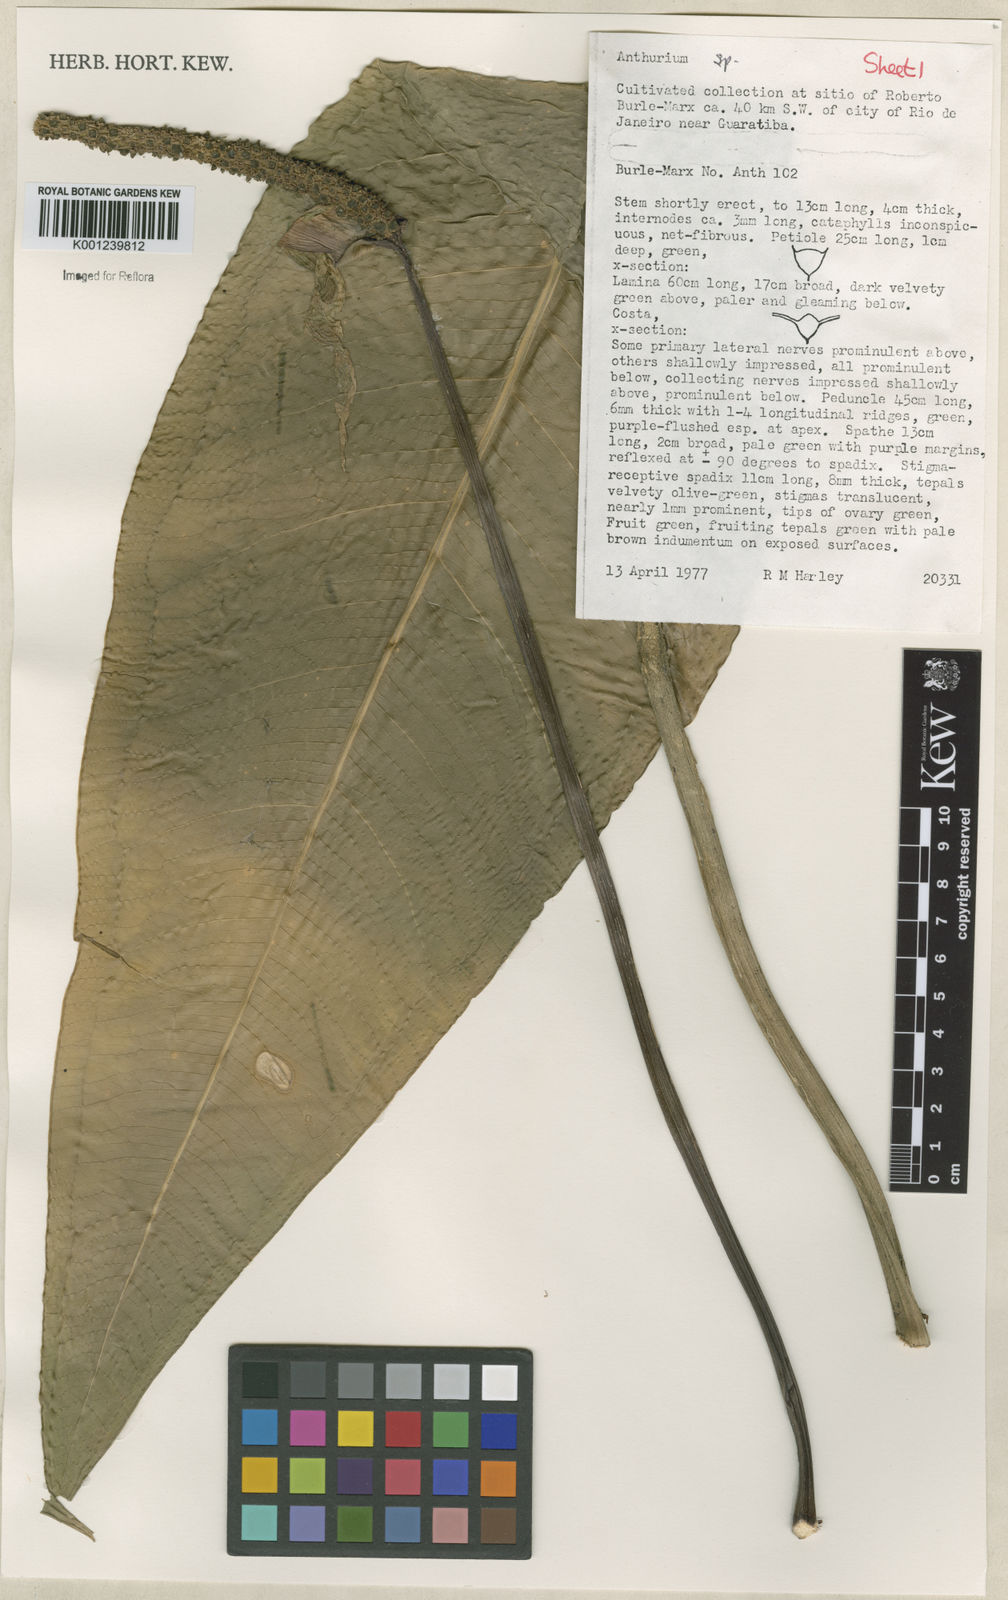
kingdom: Plantae
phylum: Tracheophyta
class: Liliopsida
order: Alismatales
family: Araceae
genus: Anthurium
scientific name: Anthurium
